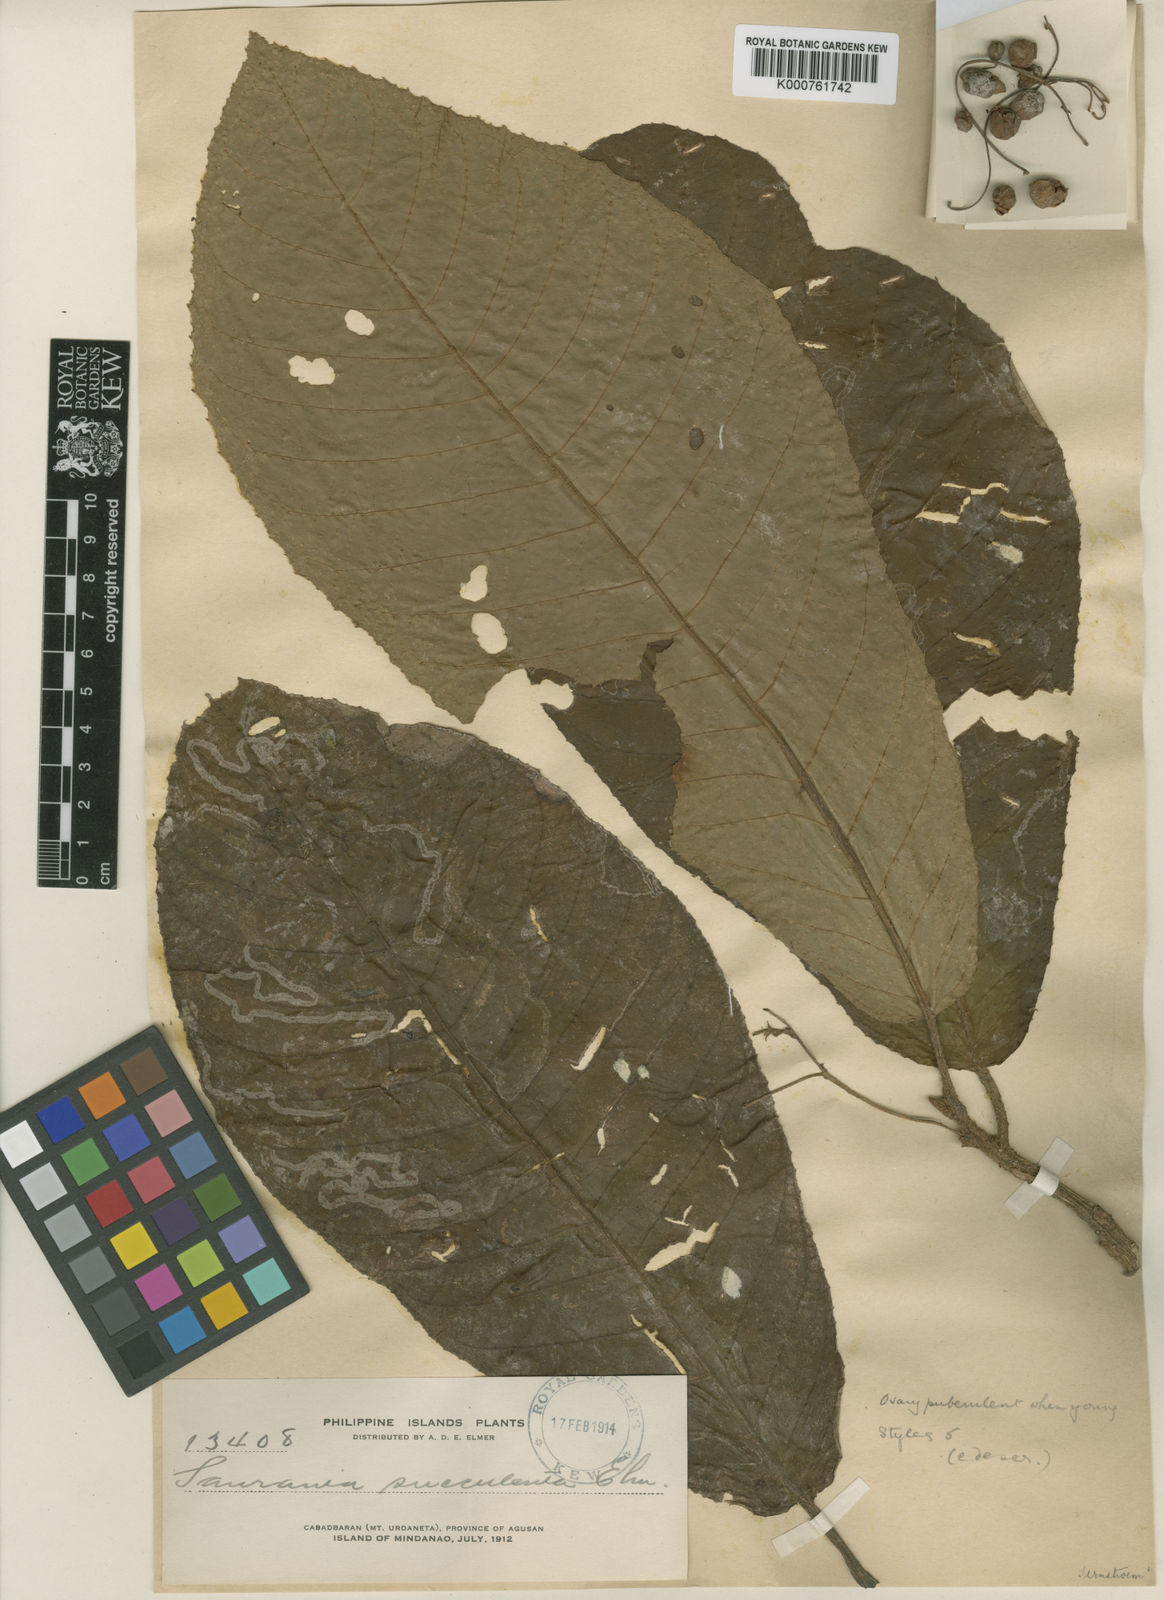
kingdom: Plantae
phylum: Tracheophyta
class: Magnoliopsida
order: Ericales
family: Actinidiaceae
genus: Saurauia
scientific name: Saurauia ampla
